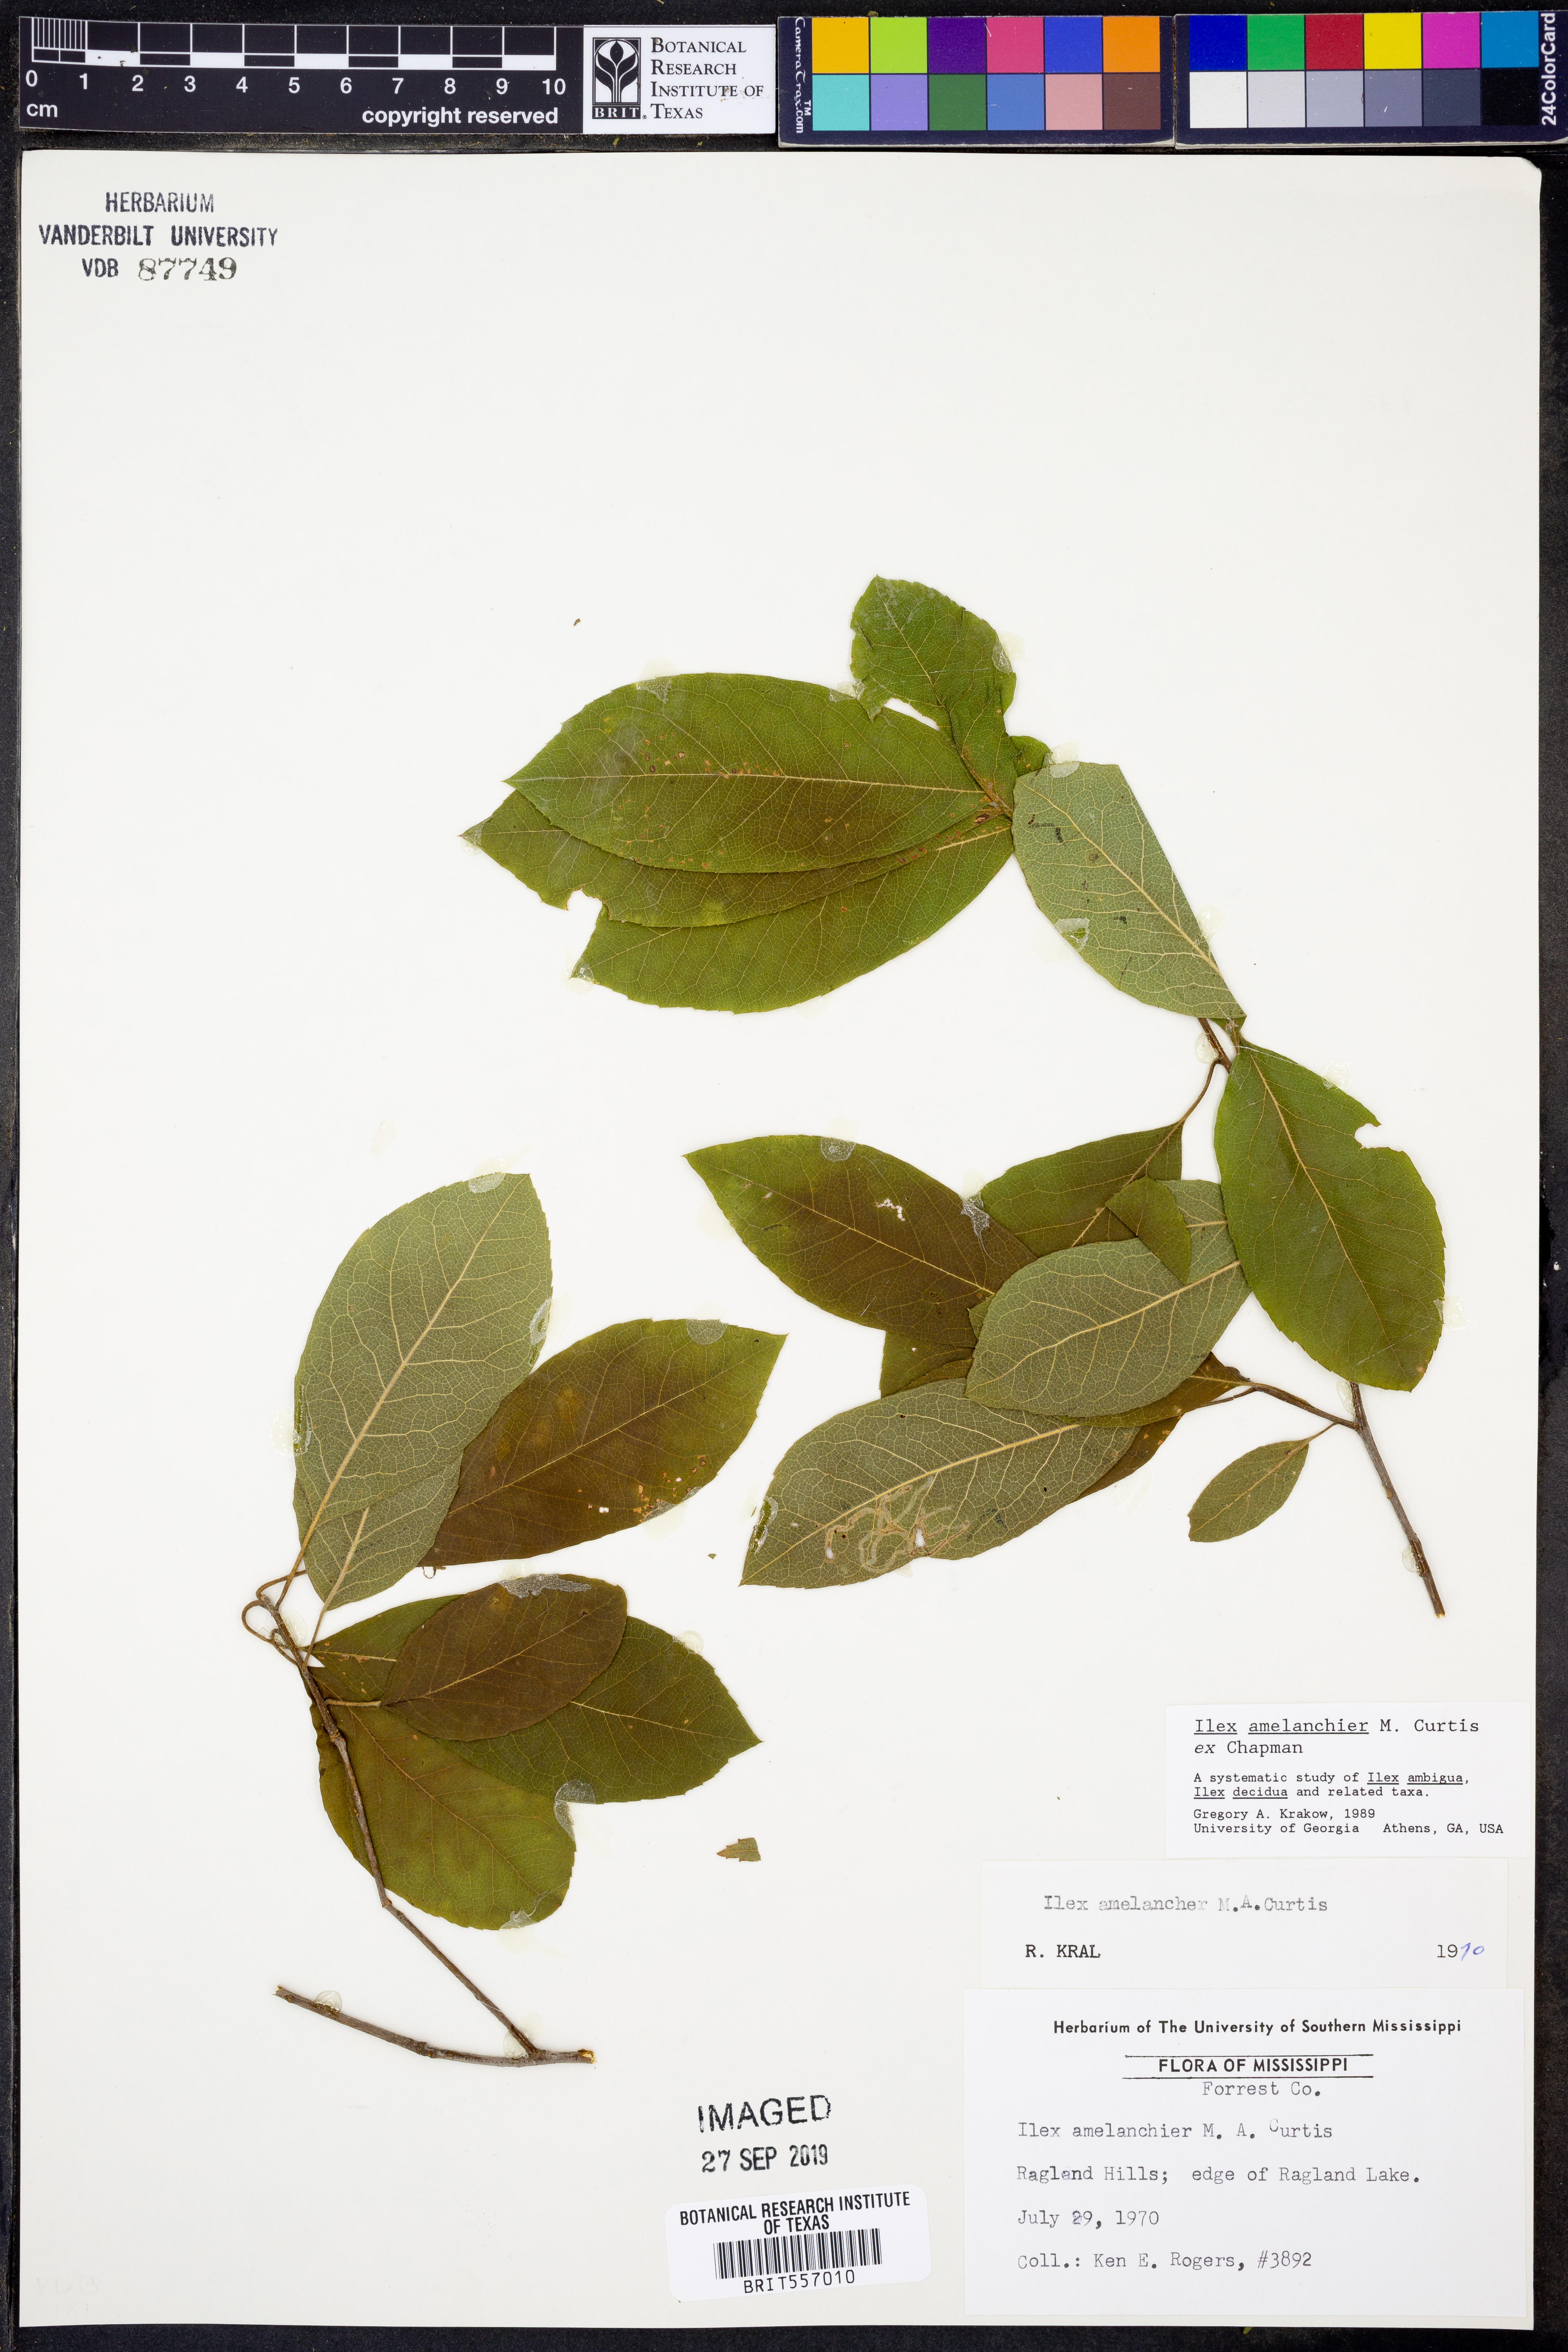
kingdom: Plantae
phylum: Tracheophyta
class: Magnoliopsida
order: Aquifoliales
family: Aquifoliaceae
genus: Ilex
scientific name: Ilex amelanchier
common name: Sarvis holly
